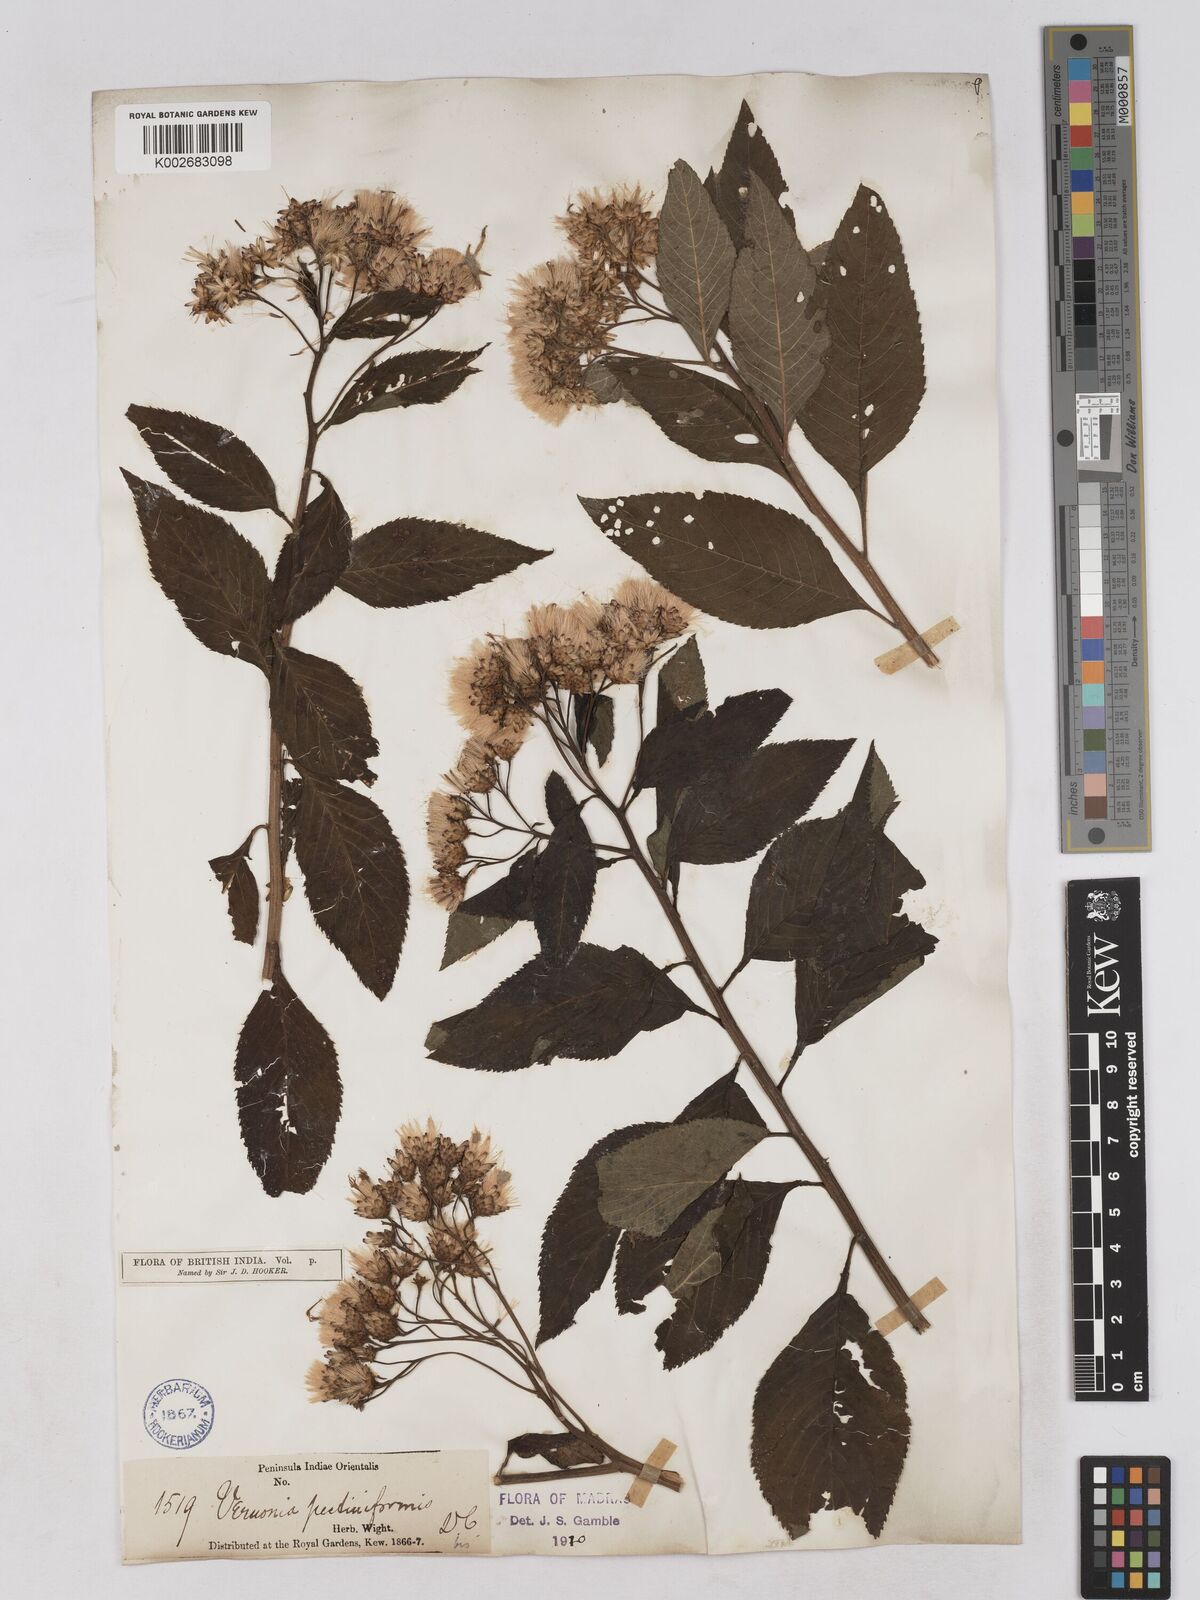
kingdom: Plantae
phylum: Tracheophyta
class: Magnoliopsida
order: Asterales
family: Asteraceae
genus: Gymnanthemum
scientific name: Gymnanthemum pectiniforme
